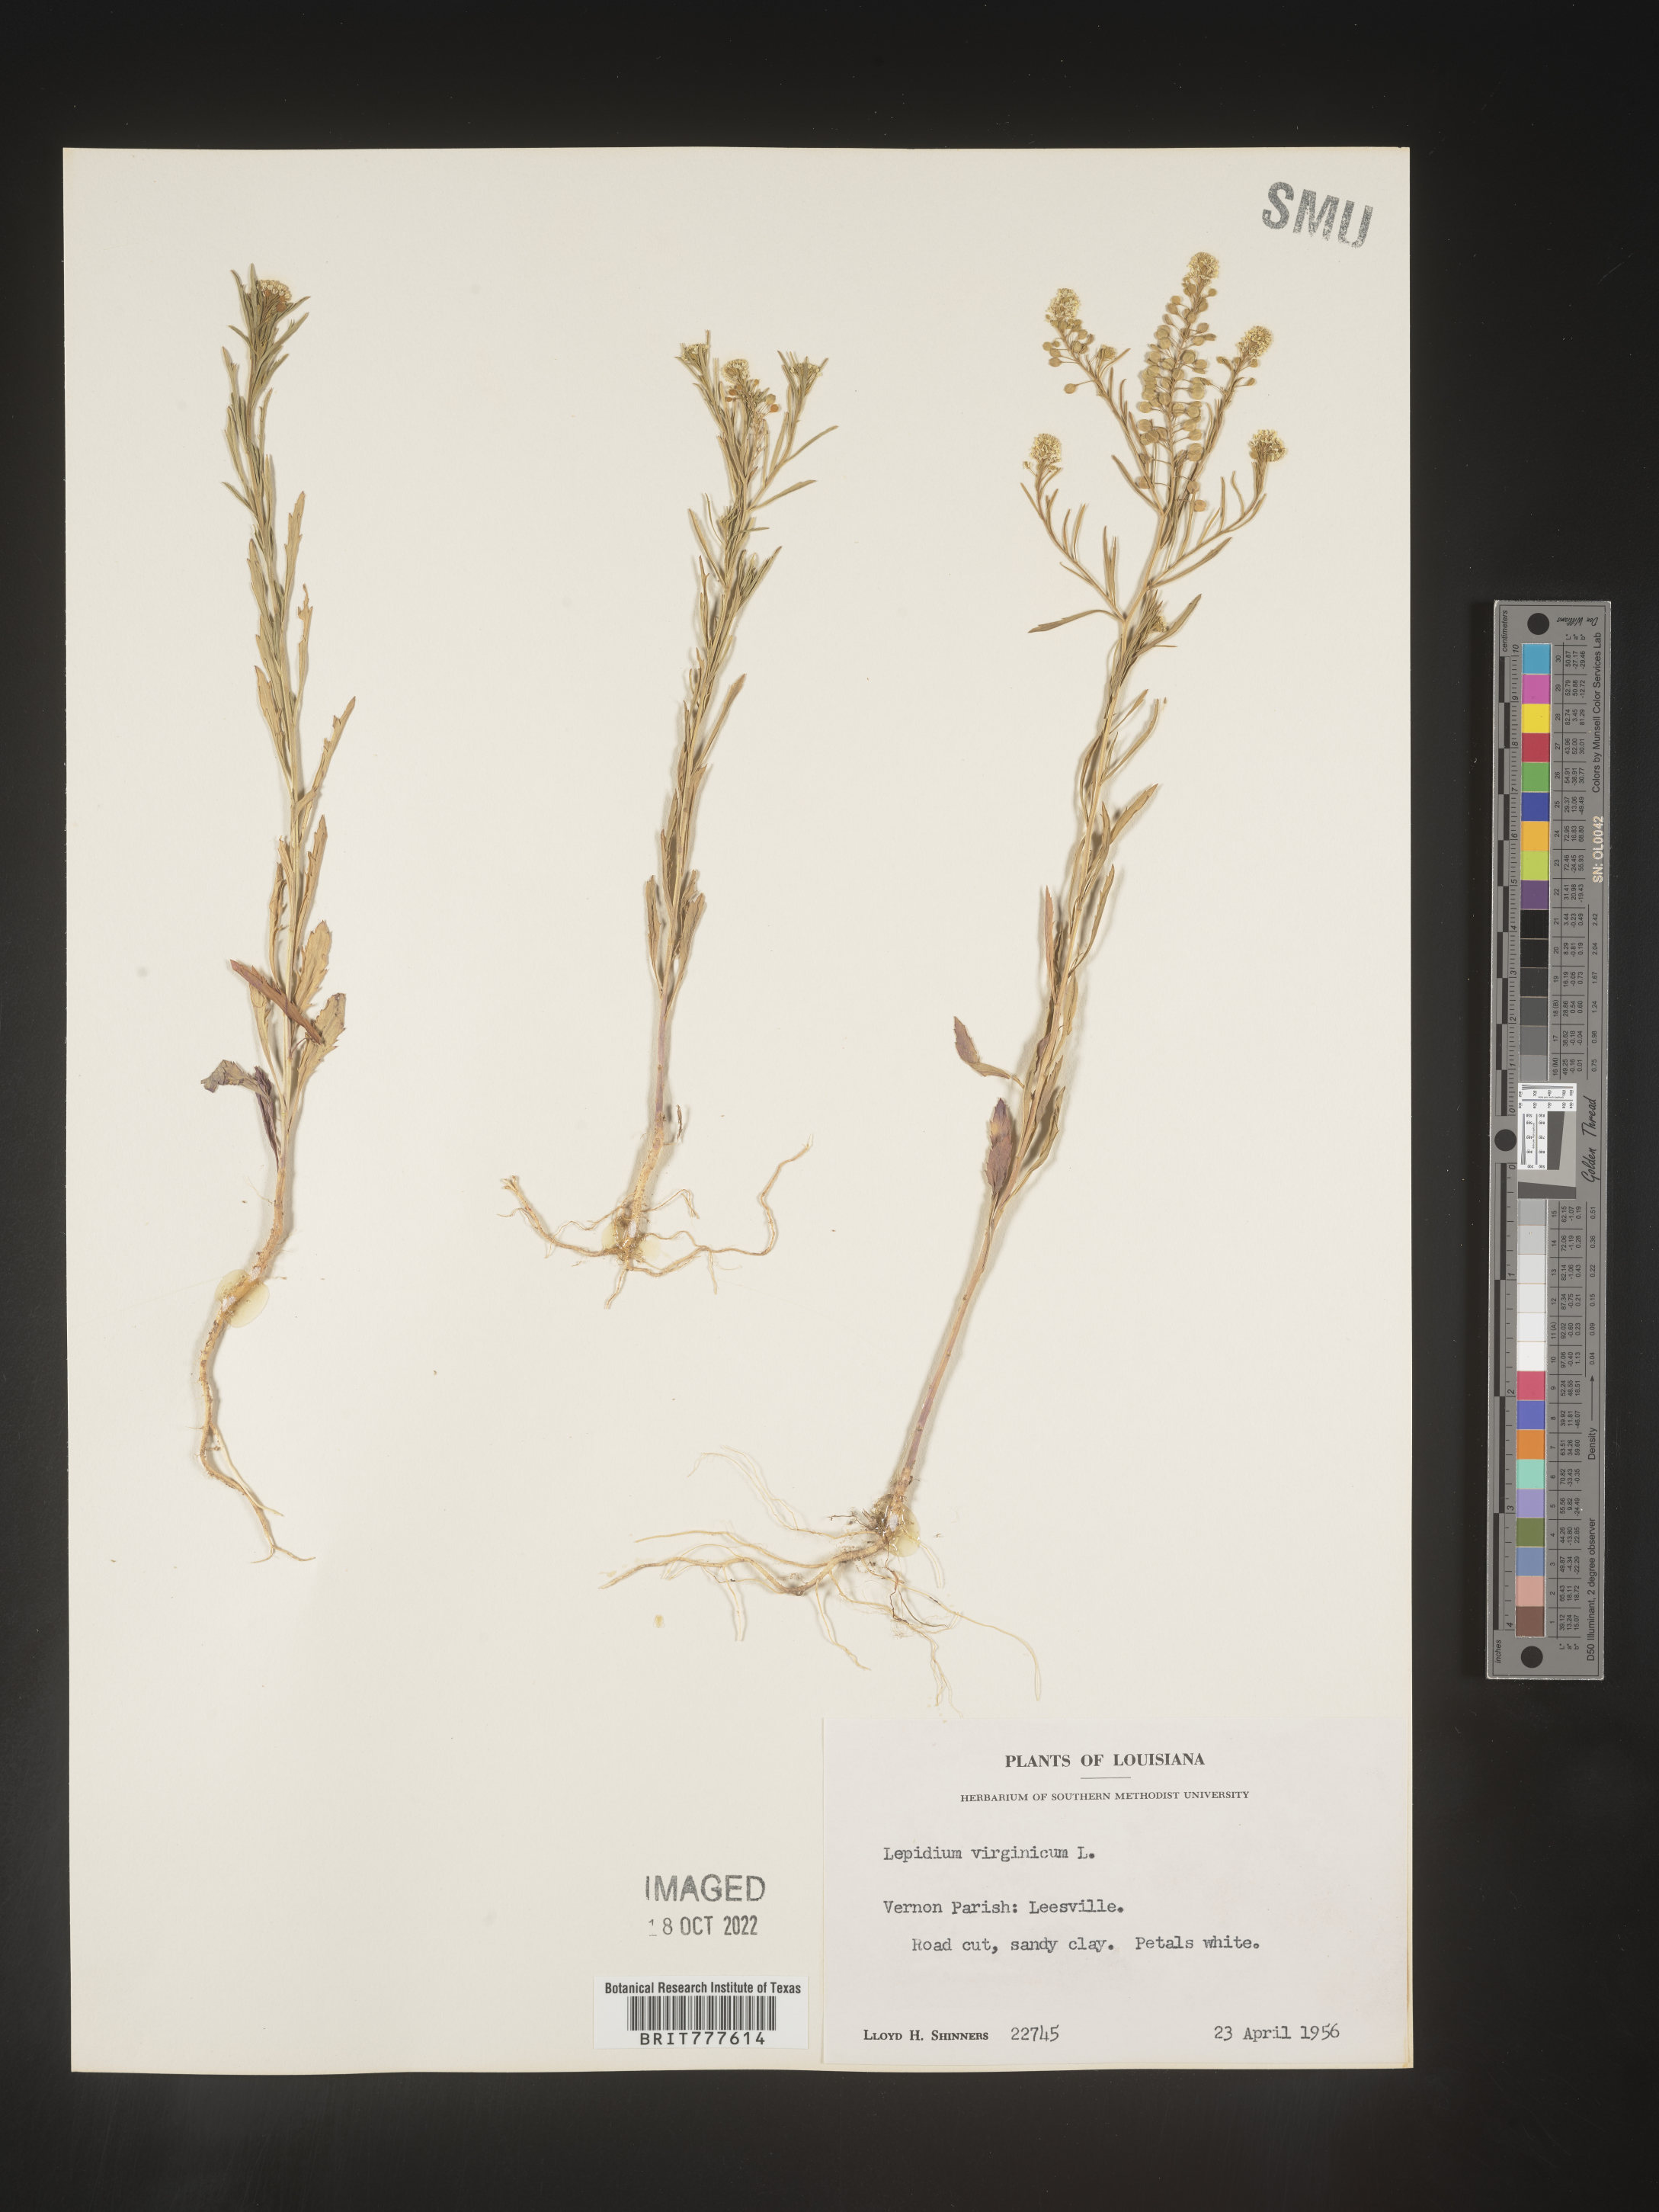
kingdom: Plantae
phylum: Tracheophyta
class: Magnoliopsida
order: Brassicales
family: Brassicaceae
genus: Lepidium
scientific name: Lepidium virginicum
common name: Least pepperwort
